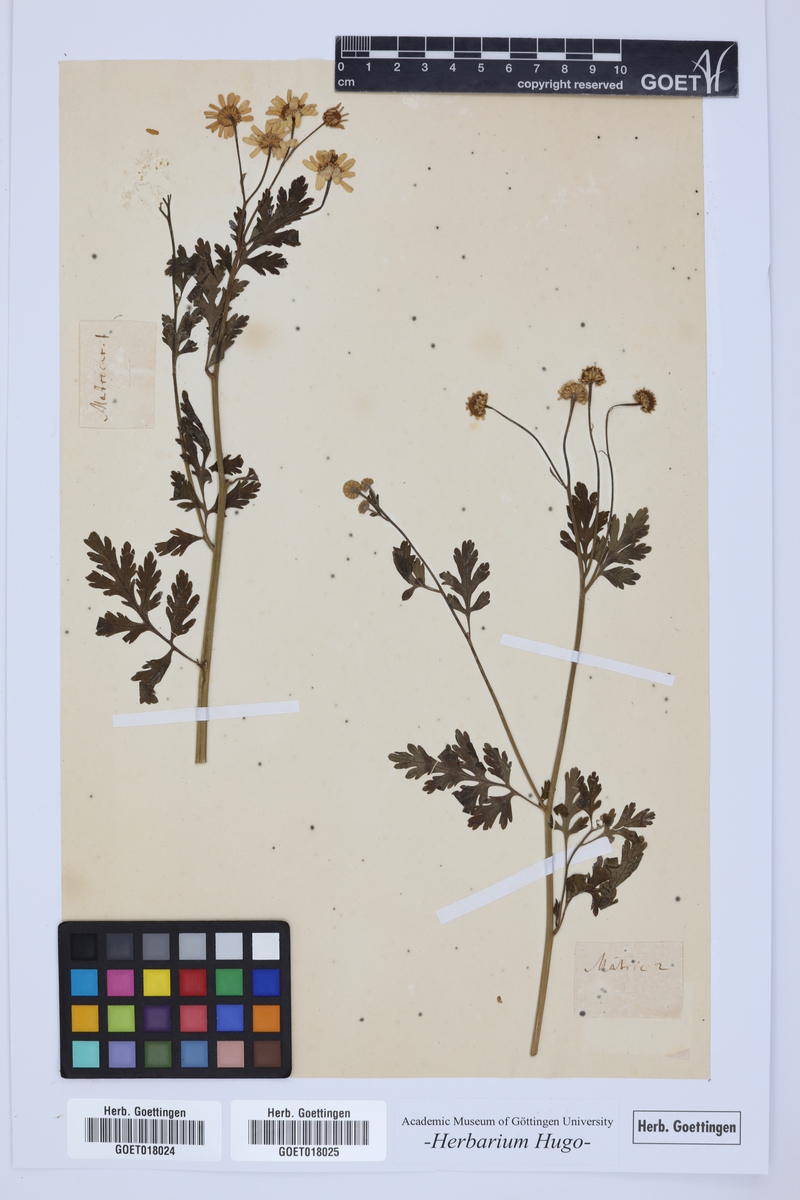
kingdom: Plantae
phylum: Tracheophyta
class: Magnoliopsida
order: Asterales
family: Asteraceae
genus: Matricaria
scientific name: Matricaria
